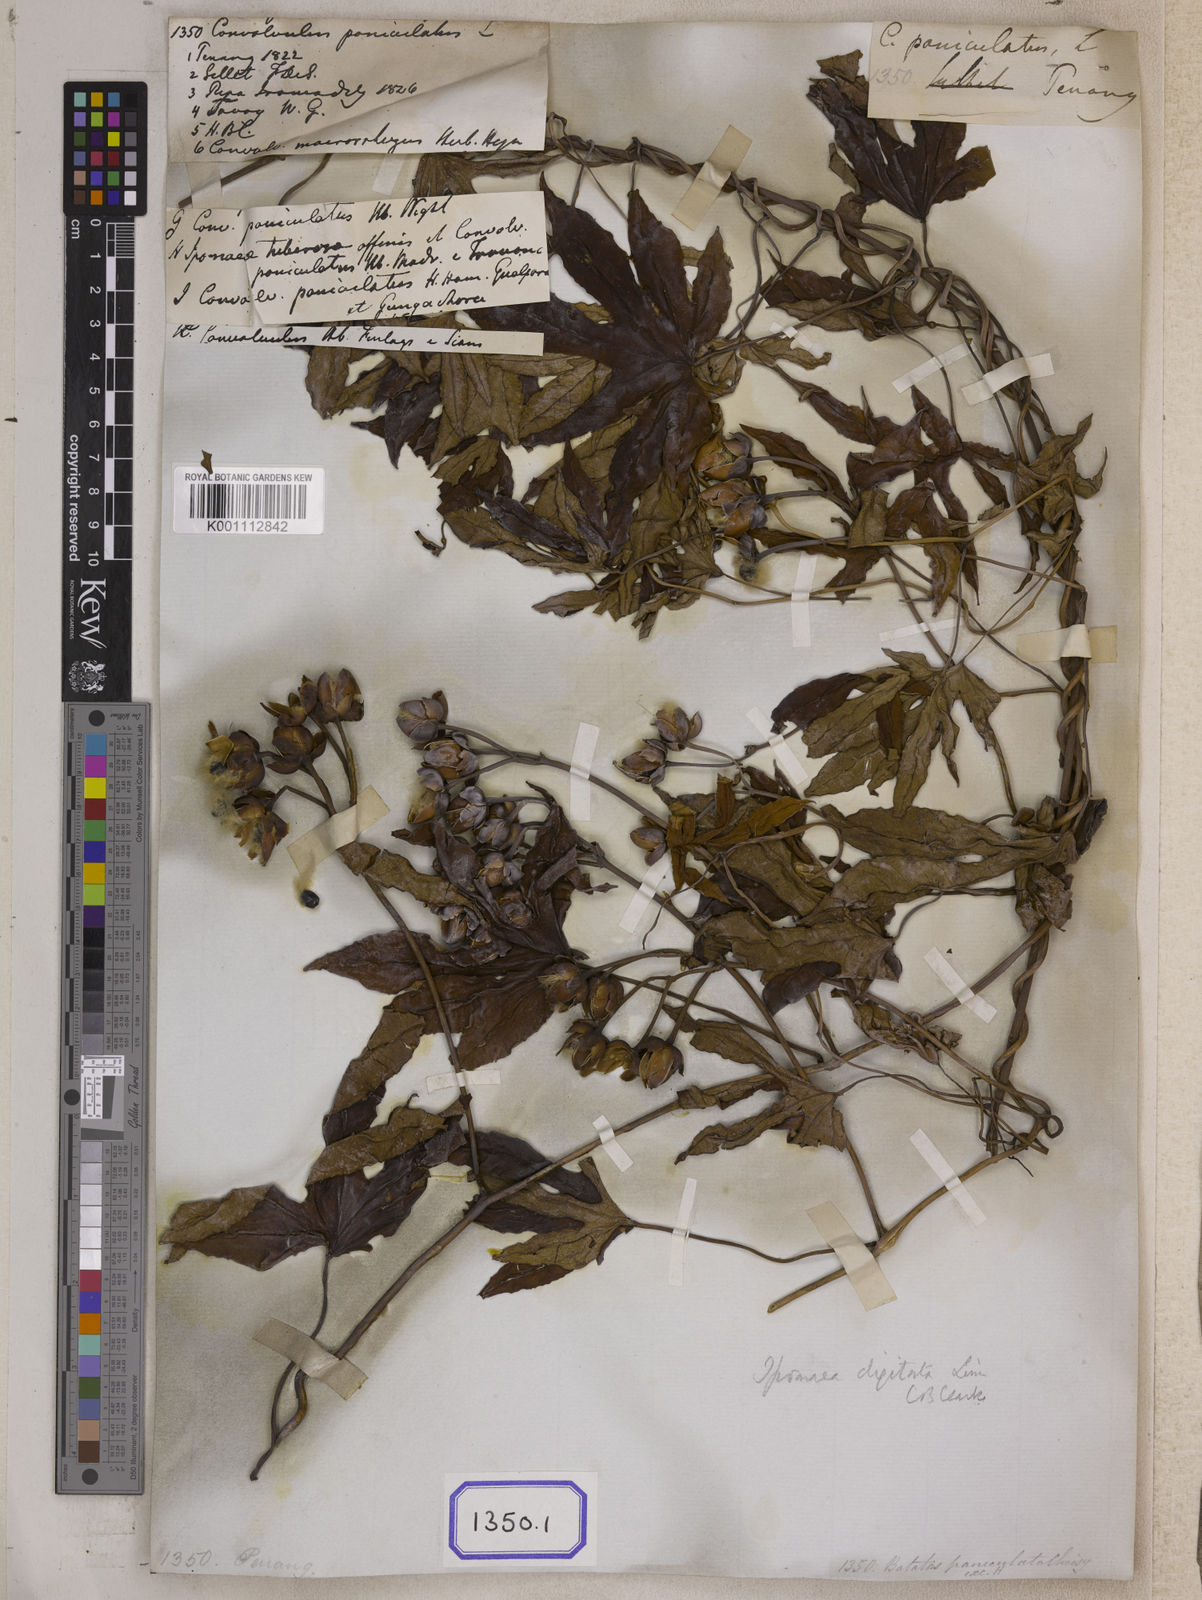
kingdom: Plantae
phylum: Tracheophyta
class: Magnoliopsida
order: Solanales
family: Convolvulaceae
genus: Ipomoea
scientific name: Ipomoea mauritiana
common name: Mauritanian convolvulus
